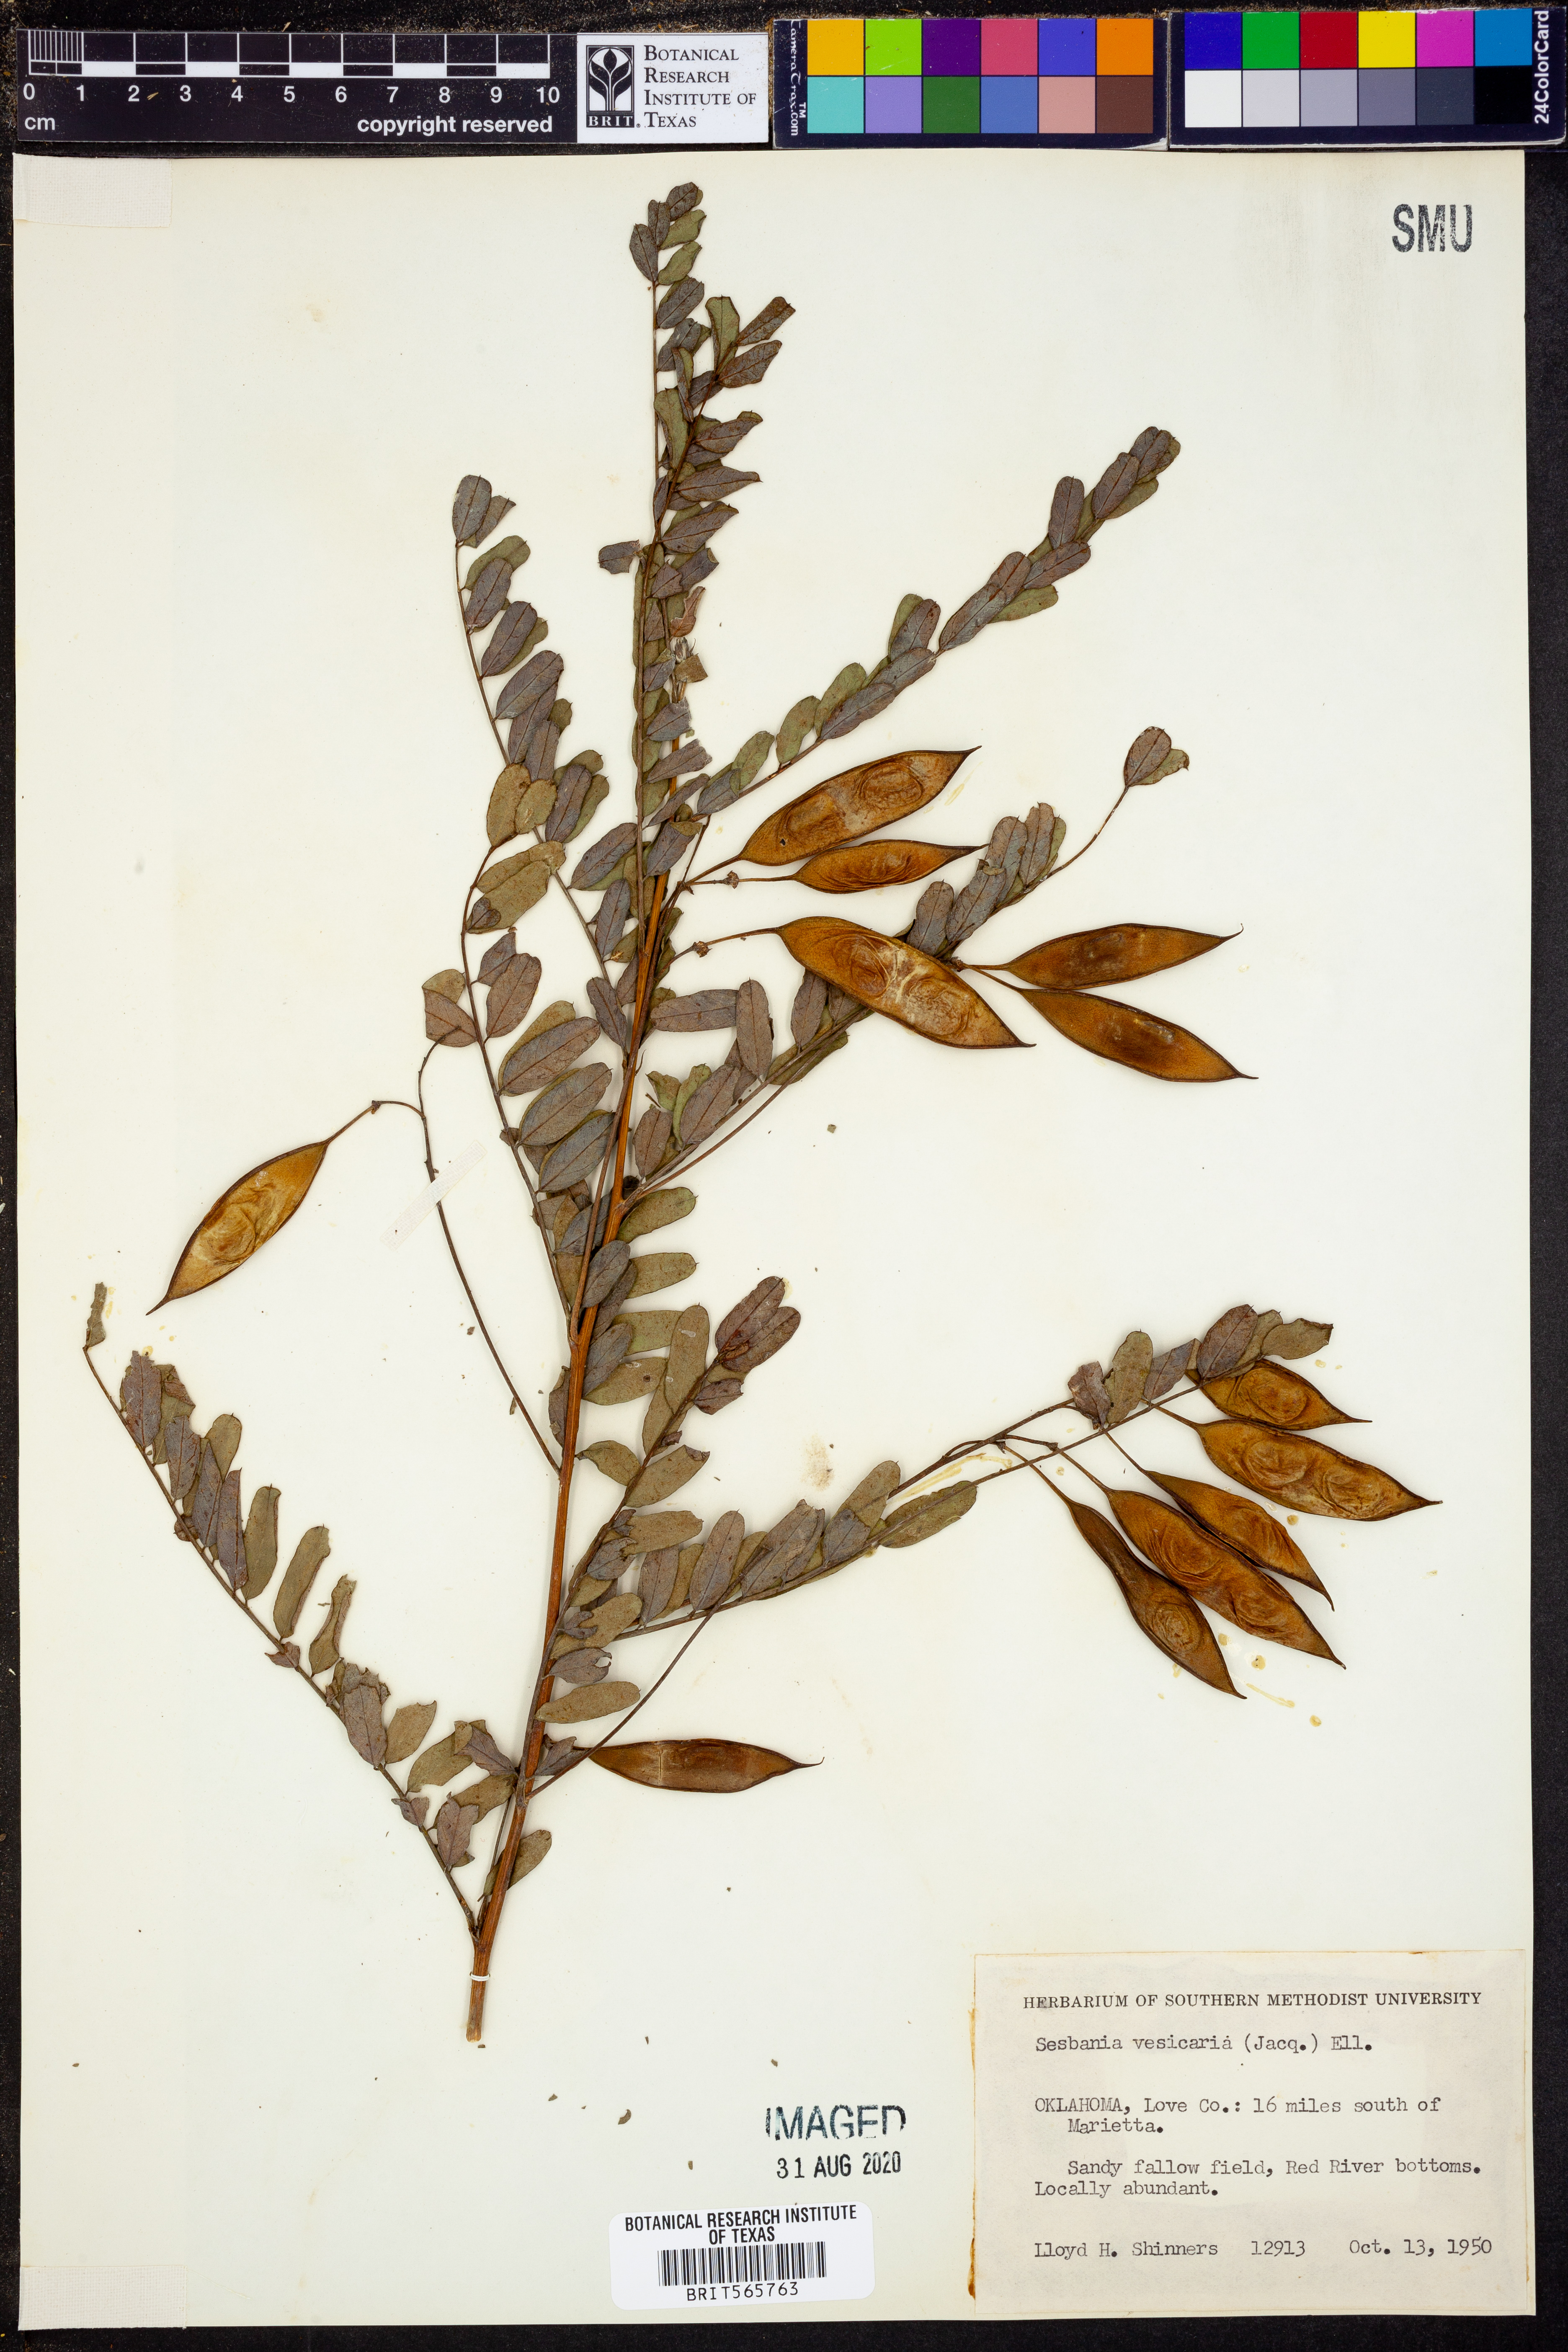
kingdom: Plantae
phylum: Tracheophyta
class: Magnoliopsida
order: Fabales
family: Fabaceae
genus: Sesbania
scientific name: Sesbania vesicaria
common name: Bagpod
